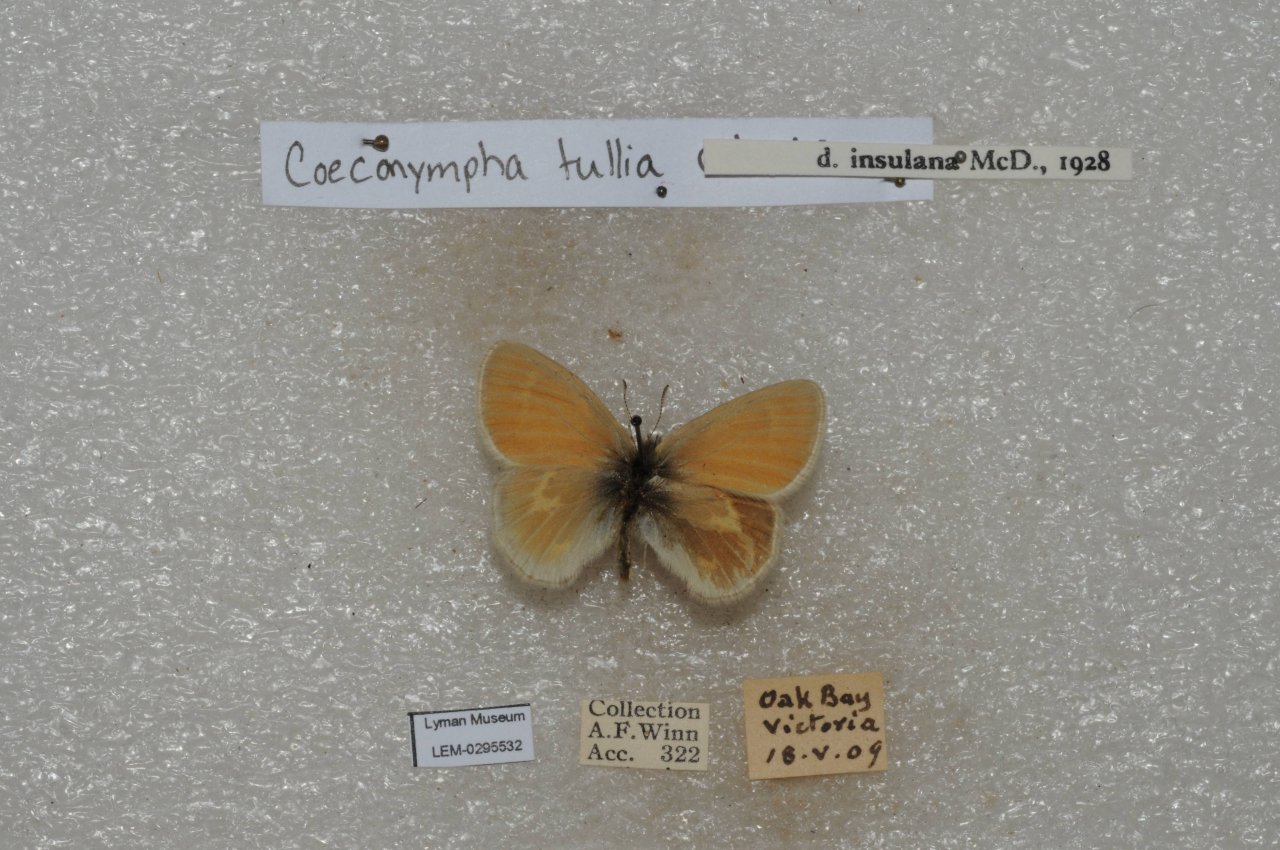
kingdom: Animalia
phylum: Arthropoda
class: Insecta
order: Lepidoptera
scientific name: Lepidoptera
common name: Butterflies
